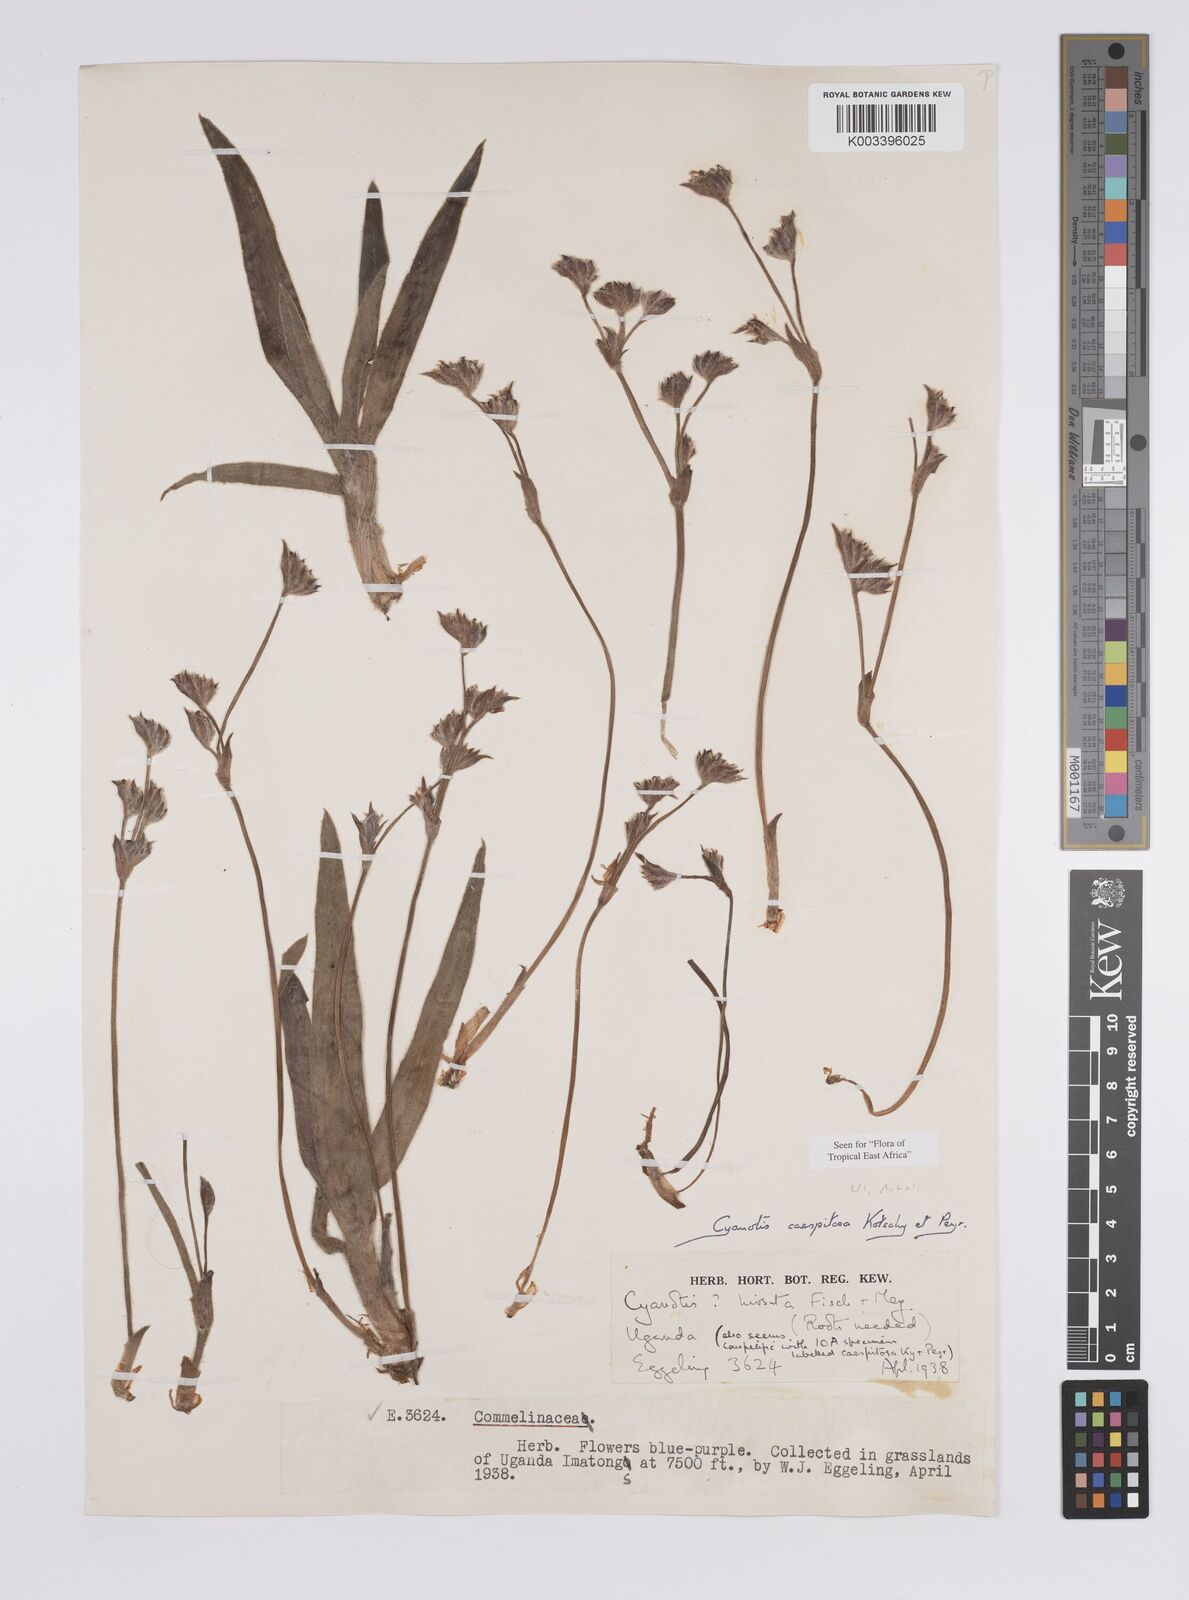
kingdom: Plantae
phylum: Tracheophyta
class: Liliopsida
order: Commelinales
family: Commelinaceae
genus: Cyanotis
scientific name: Cyanotis caespitosa
